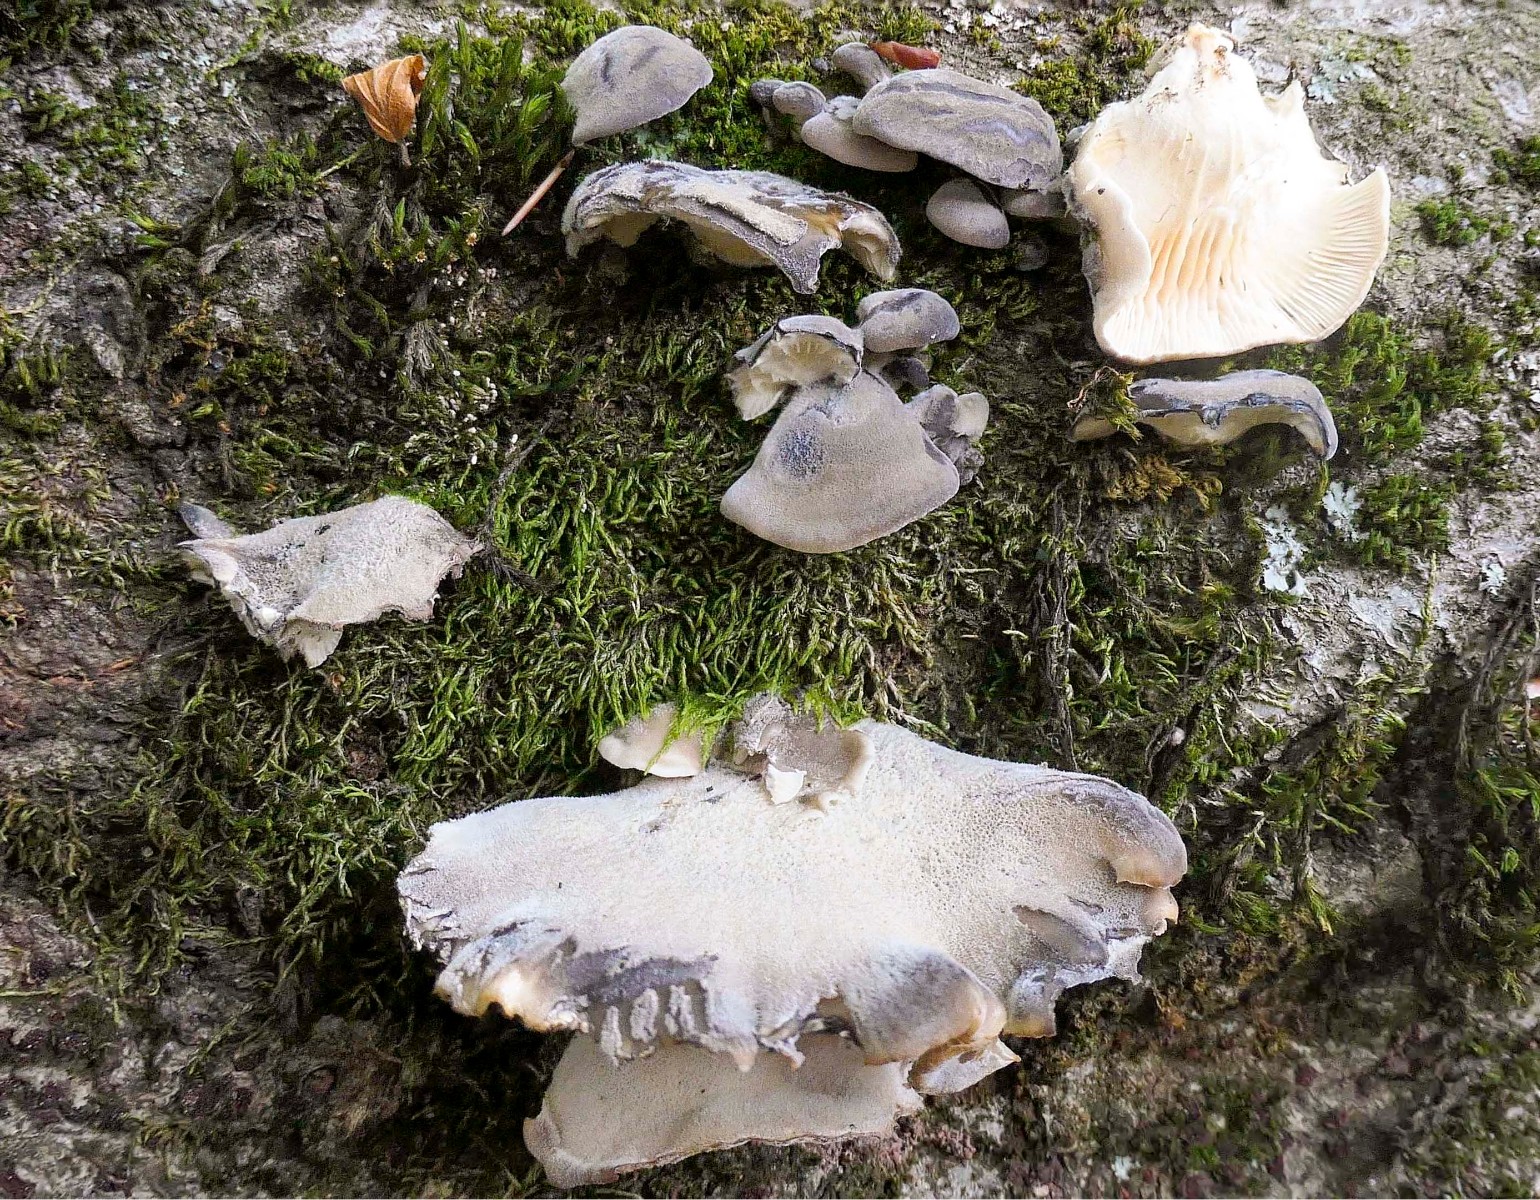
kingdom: Fungi
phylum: Basidiomycota
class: Agaricomycetes
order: Agaricales
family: Pleurotaceae
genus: Hohenbuehelia
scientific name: Hohenbuehelia mastrucata
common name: skællet filthat
